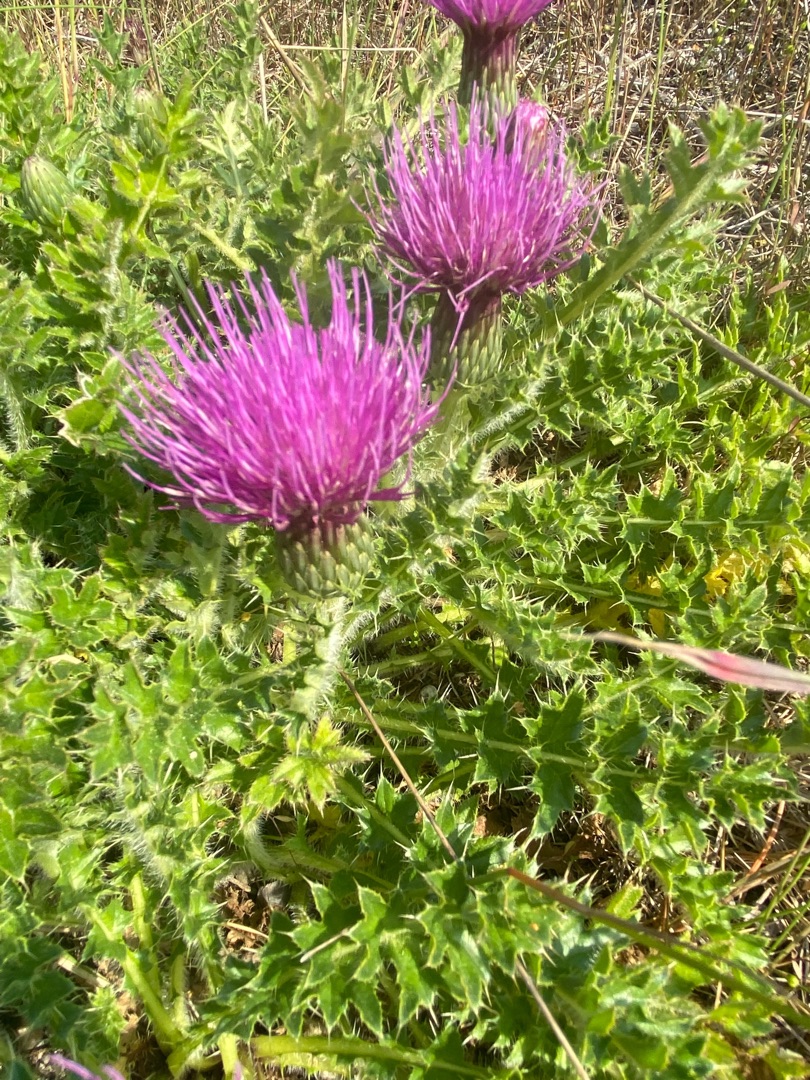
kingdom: Plantae
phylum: Tracheophyta
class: Magnoliopsida
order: Asterales
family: Asteraceae
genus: Cirsium
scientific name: Cirsium acaule
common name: Lav tidsel
